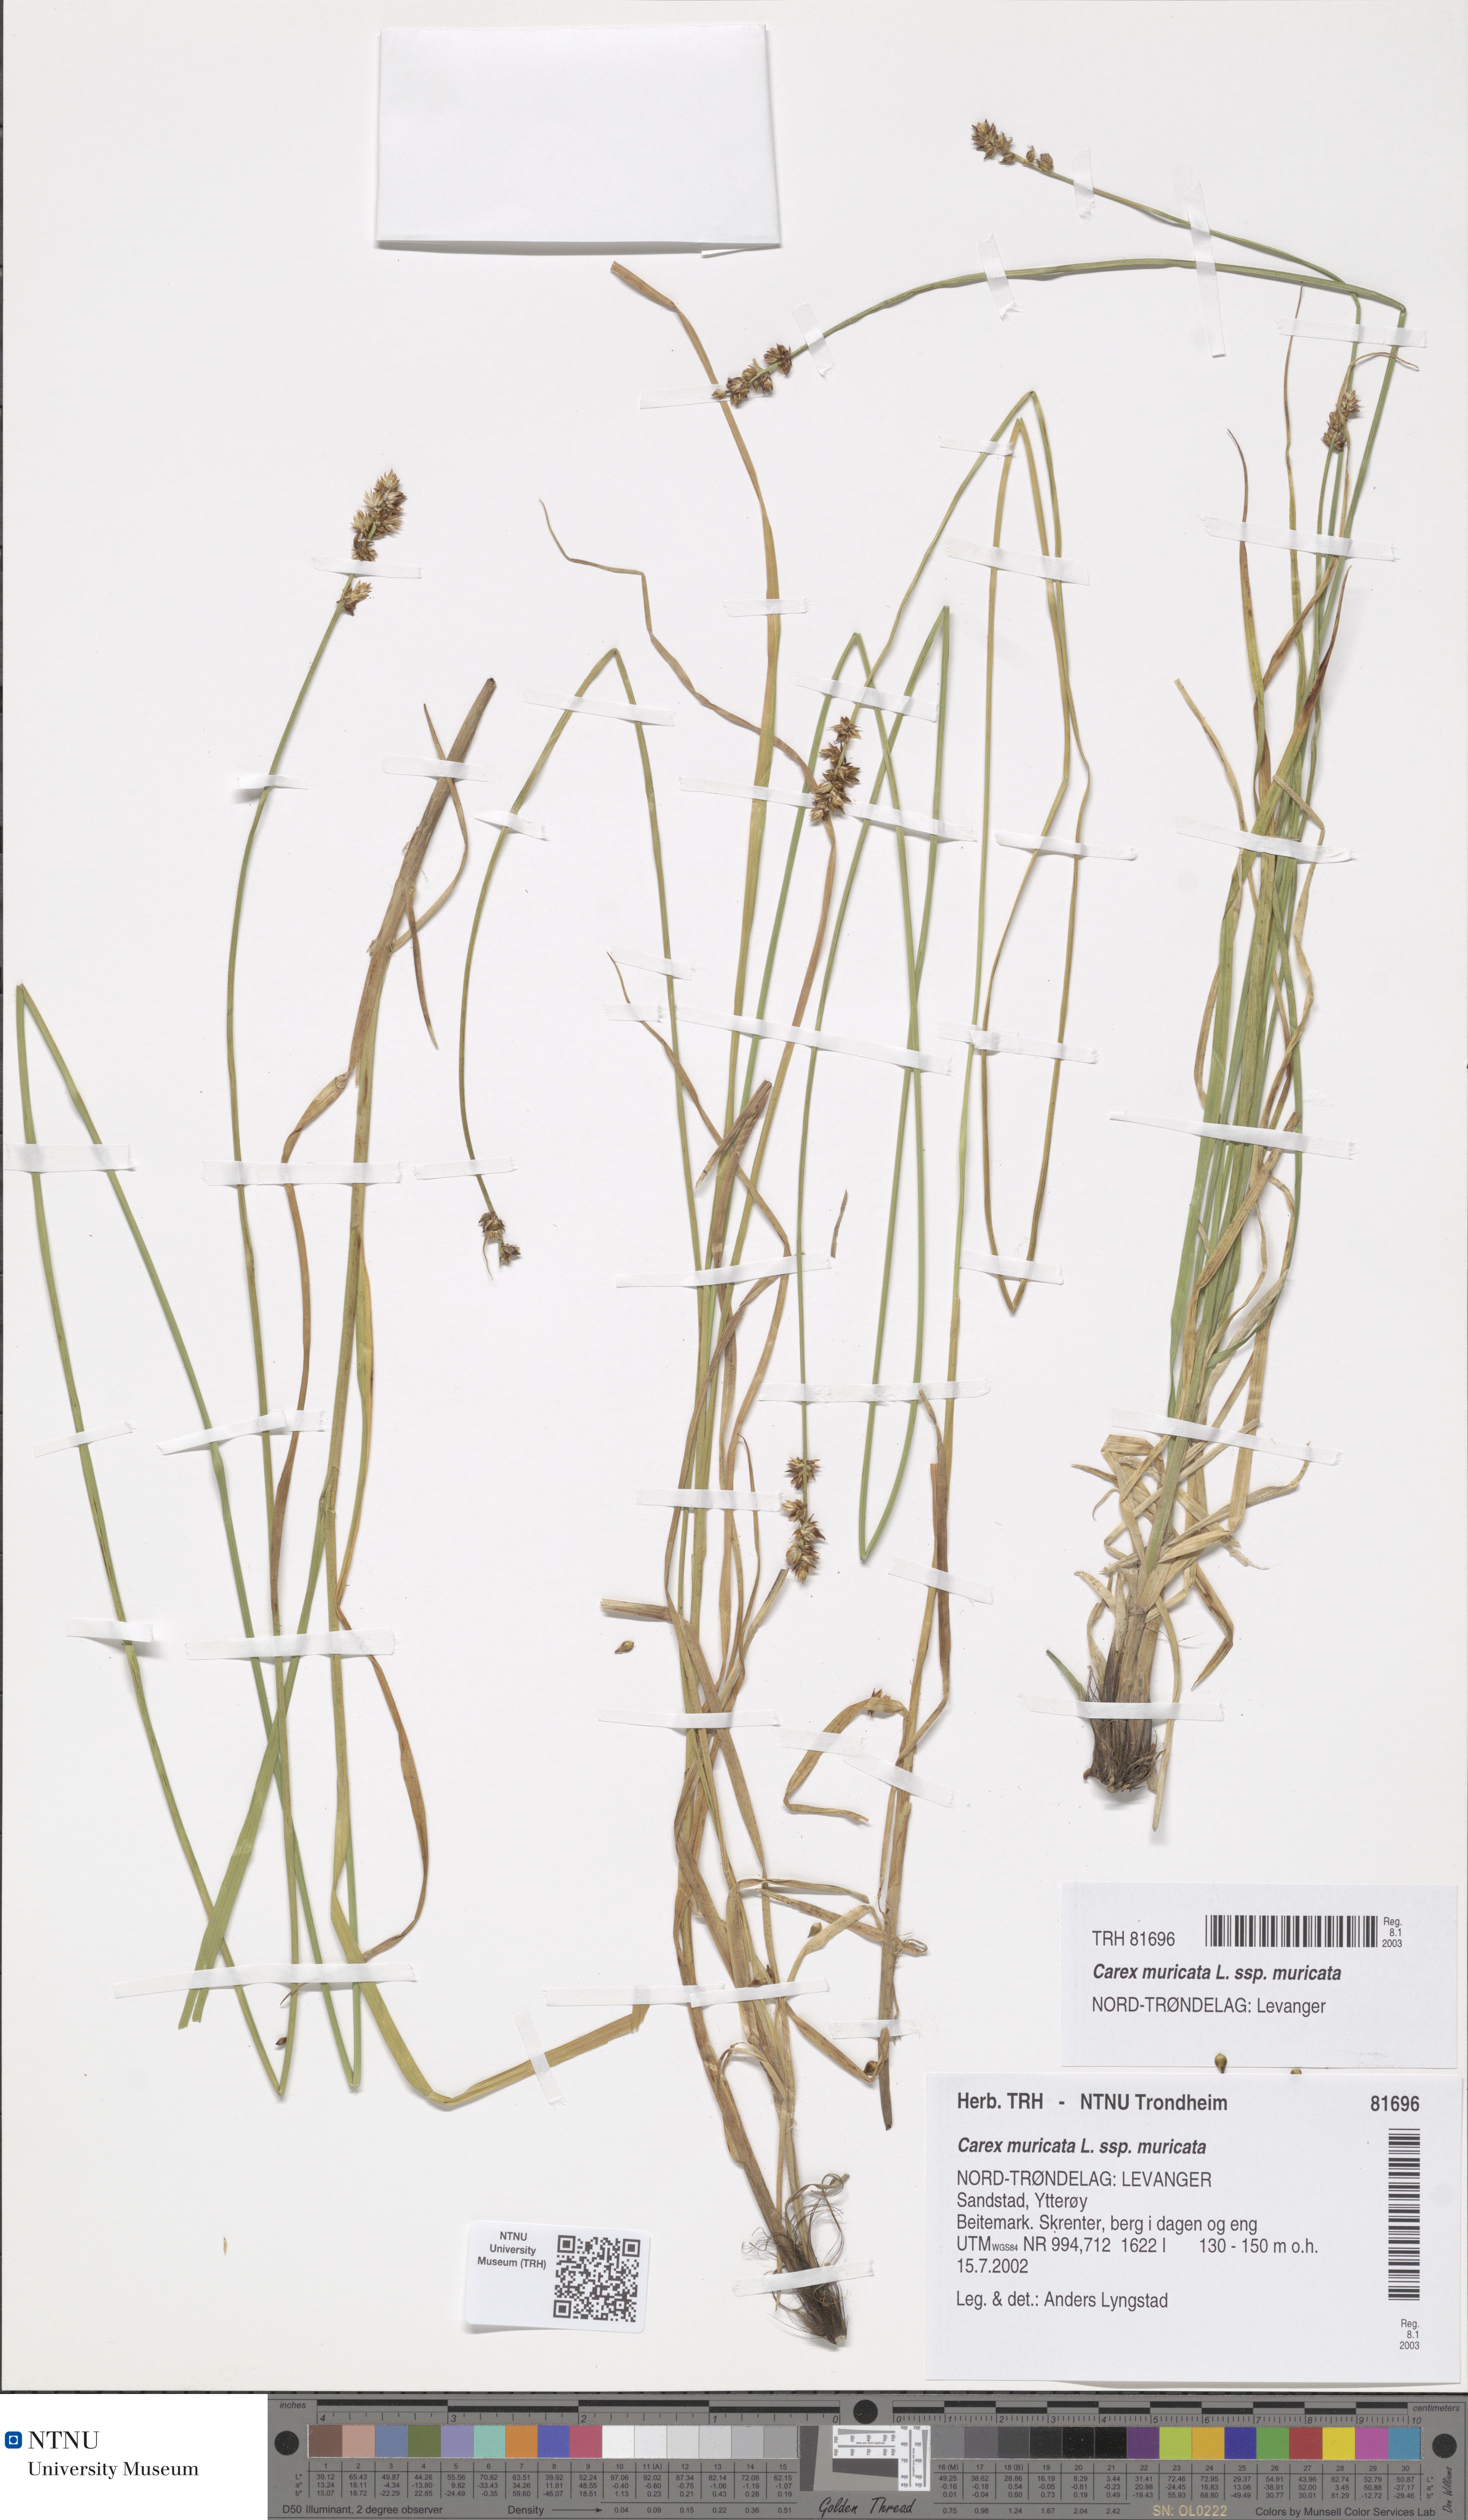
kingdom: Plantae
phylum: Tracheophyta
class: Liliopsida
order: Poales
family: Cyperaceae
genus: Carex
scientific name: Carex muricata
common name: Rough sedge
